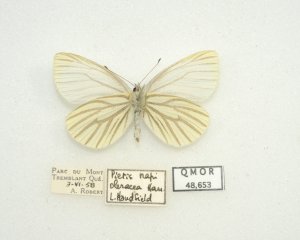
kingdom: Animalia
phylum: Arthropoda
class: Insecta
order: Lepidoptera
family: Pieridae
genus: Pieris
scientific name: Pieris oleracea
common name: Mustard White
